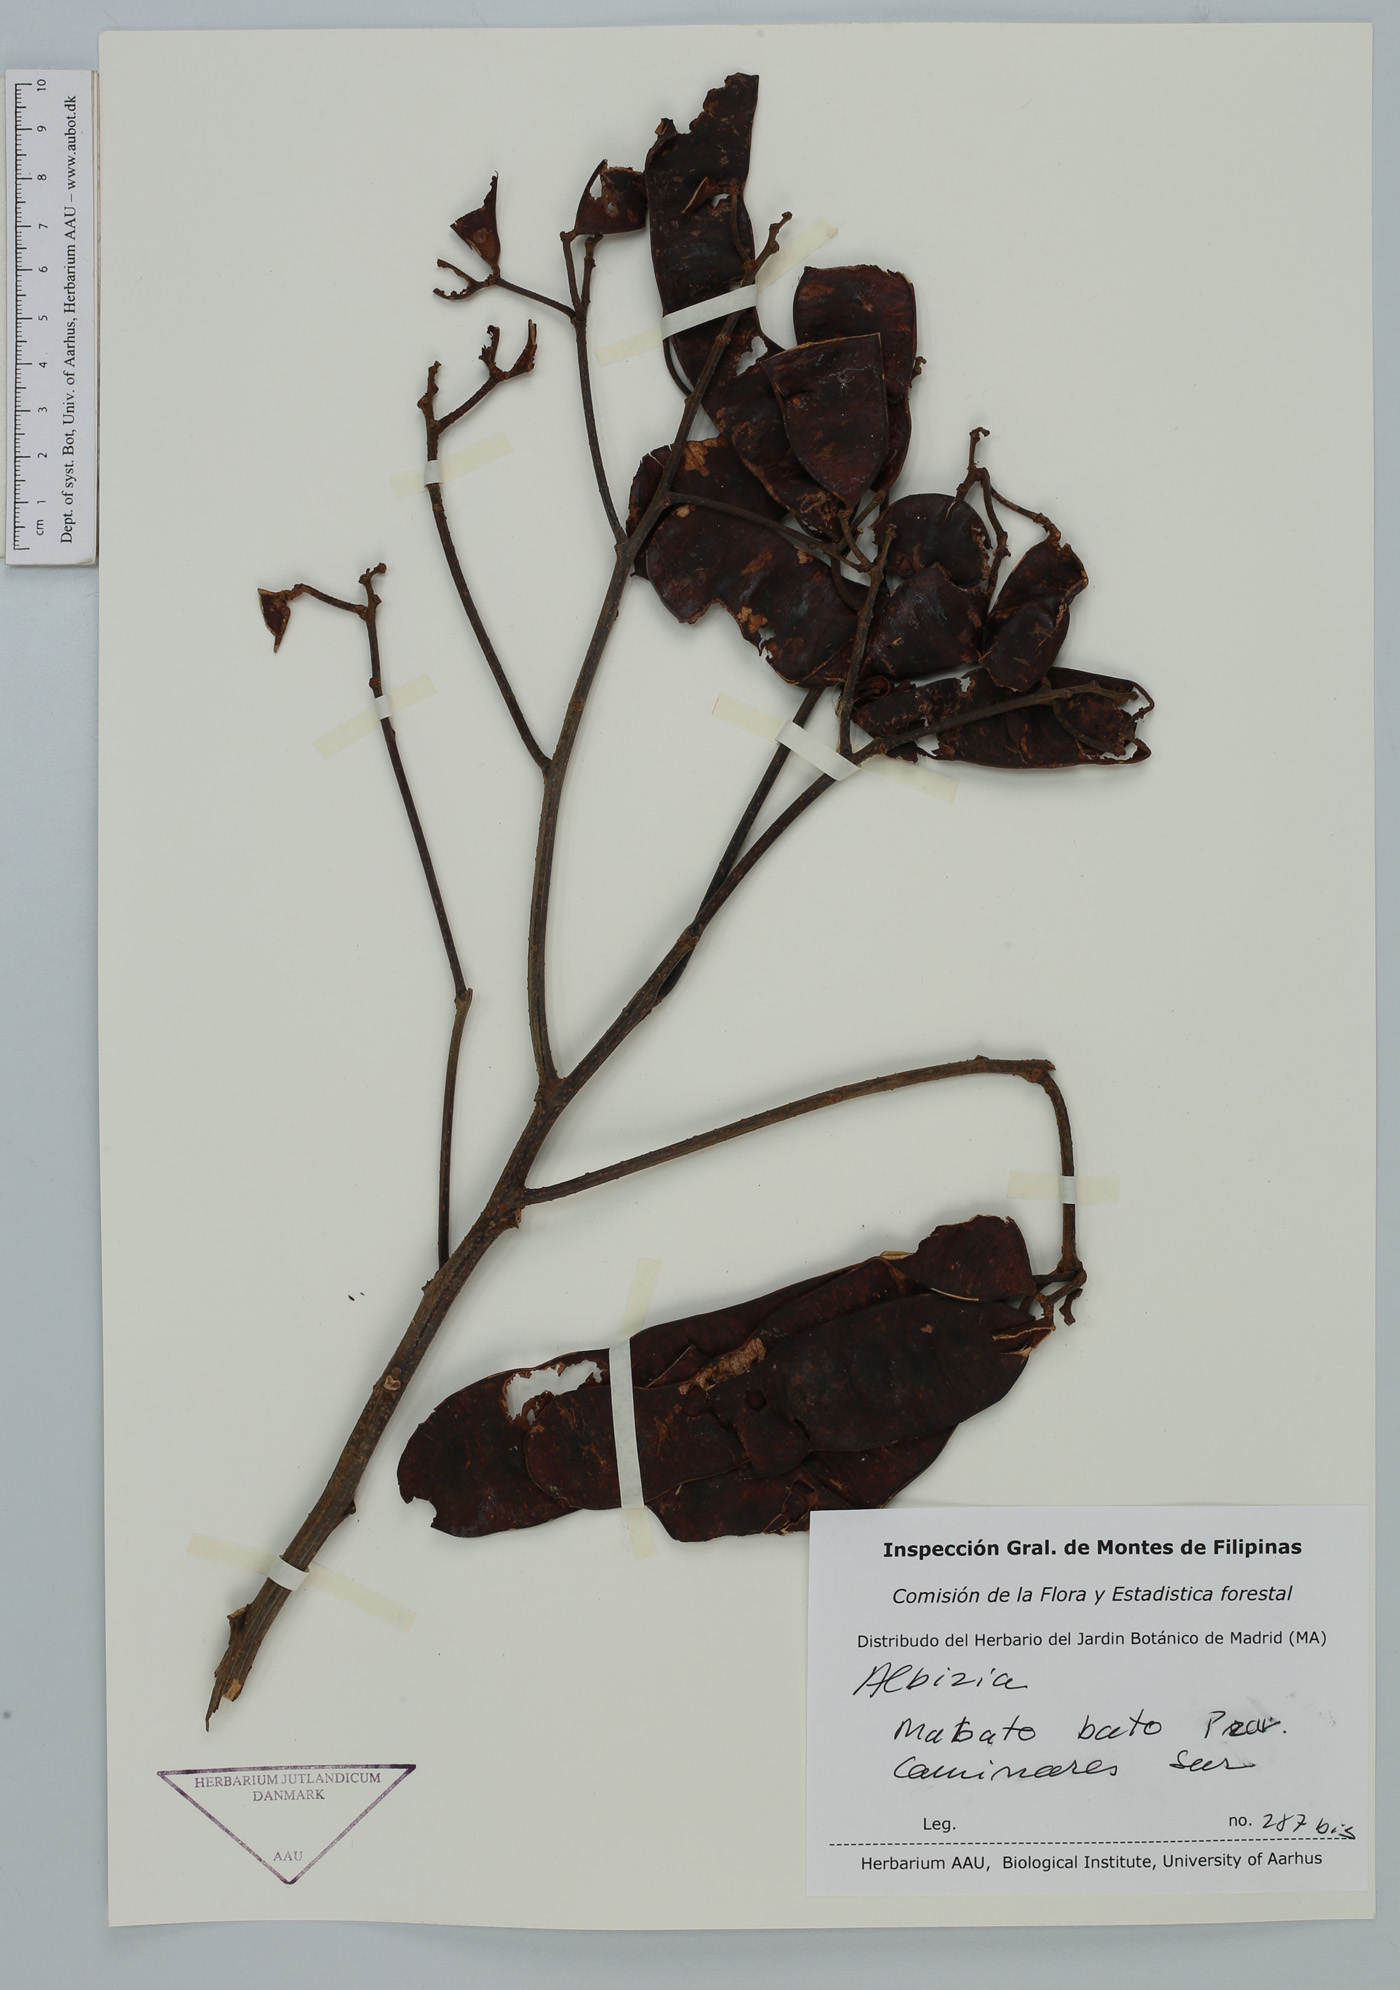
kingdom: Plantae
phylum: Tracheophyta
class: Magnoliopsida
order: Fabales
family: Fabaceae
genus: Albizia
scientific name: Albizia
